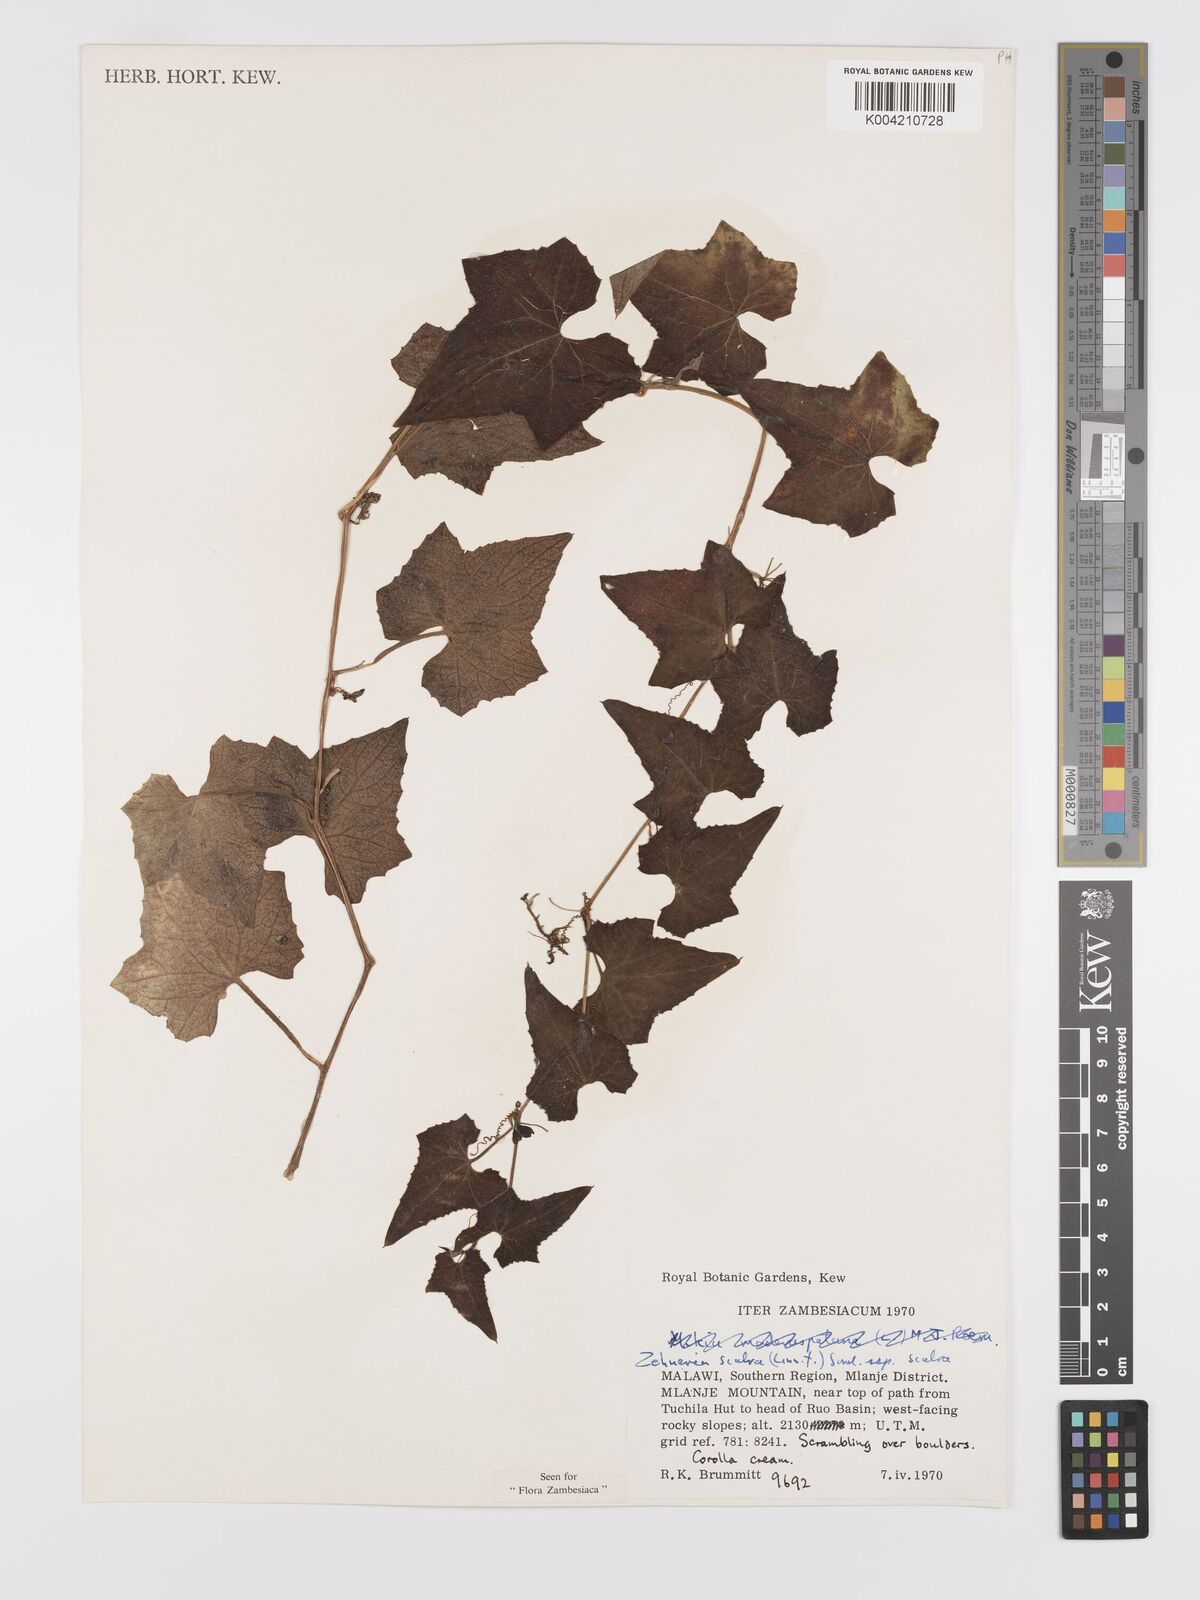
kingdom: Plantae
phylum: Tracheophyta
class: Magnoliopsida
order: Cucurbitales
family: Cucurbitaceae
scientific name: Cucurbitaceae
